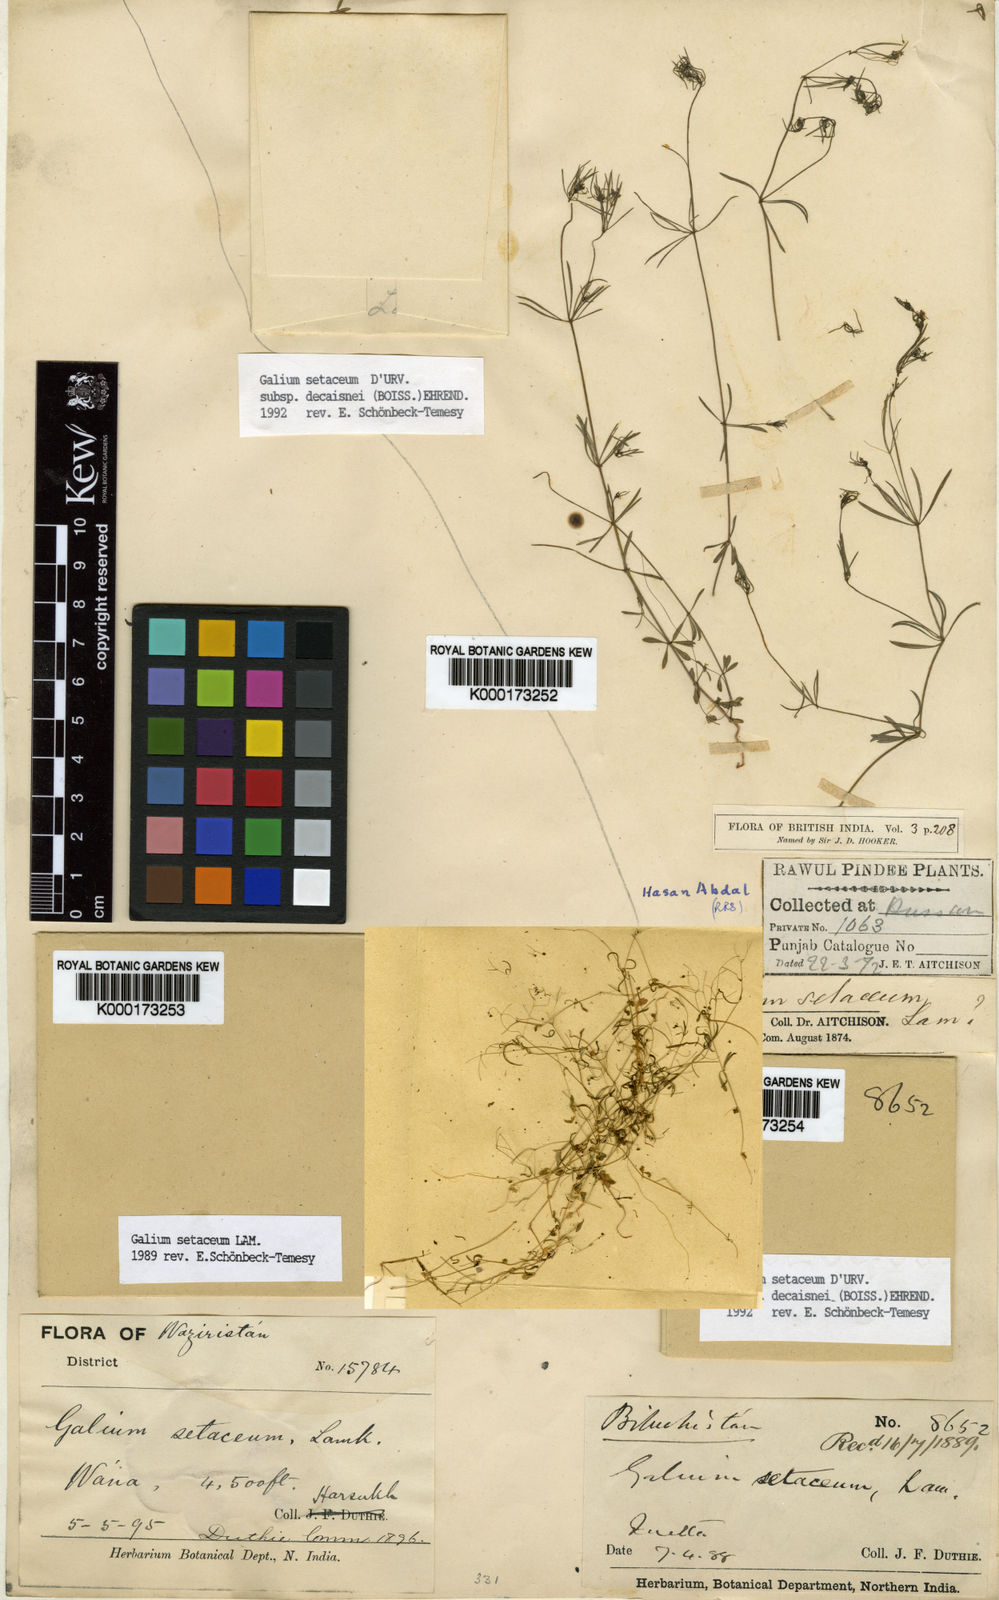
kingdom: Plantae
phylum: Tracheophyta
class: Magnoliopsida
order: Gentianales
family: Rubiaceae
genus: Galium
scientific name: Galium setaceum
